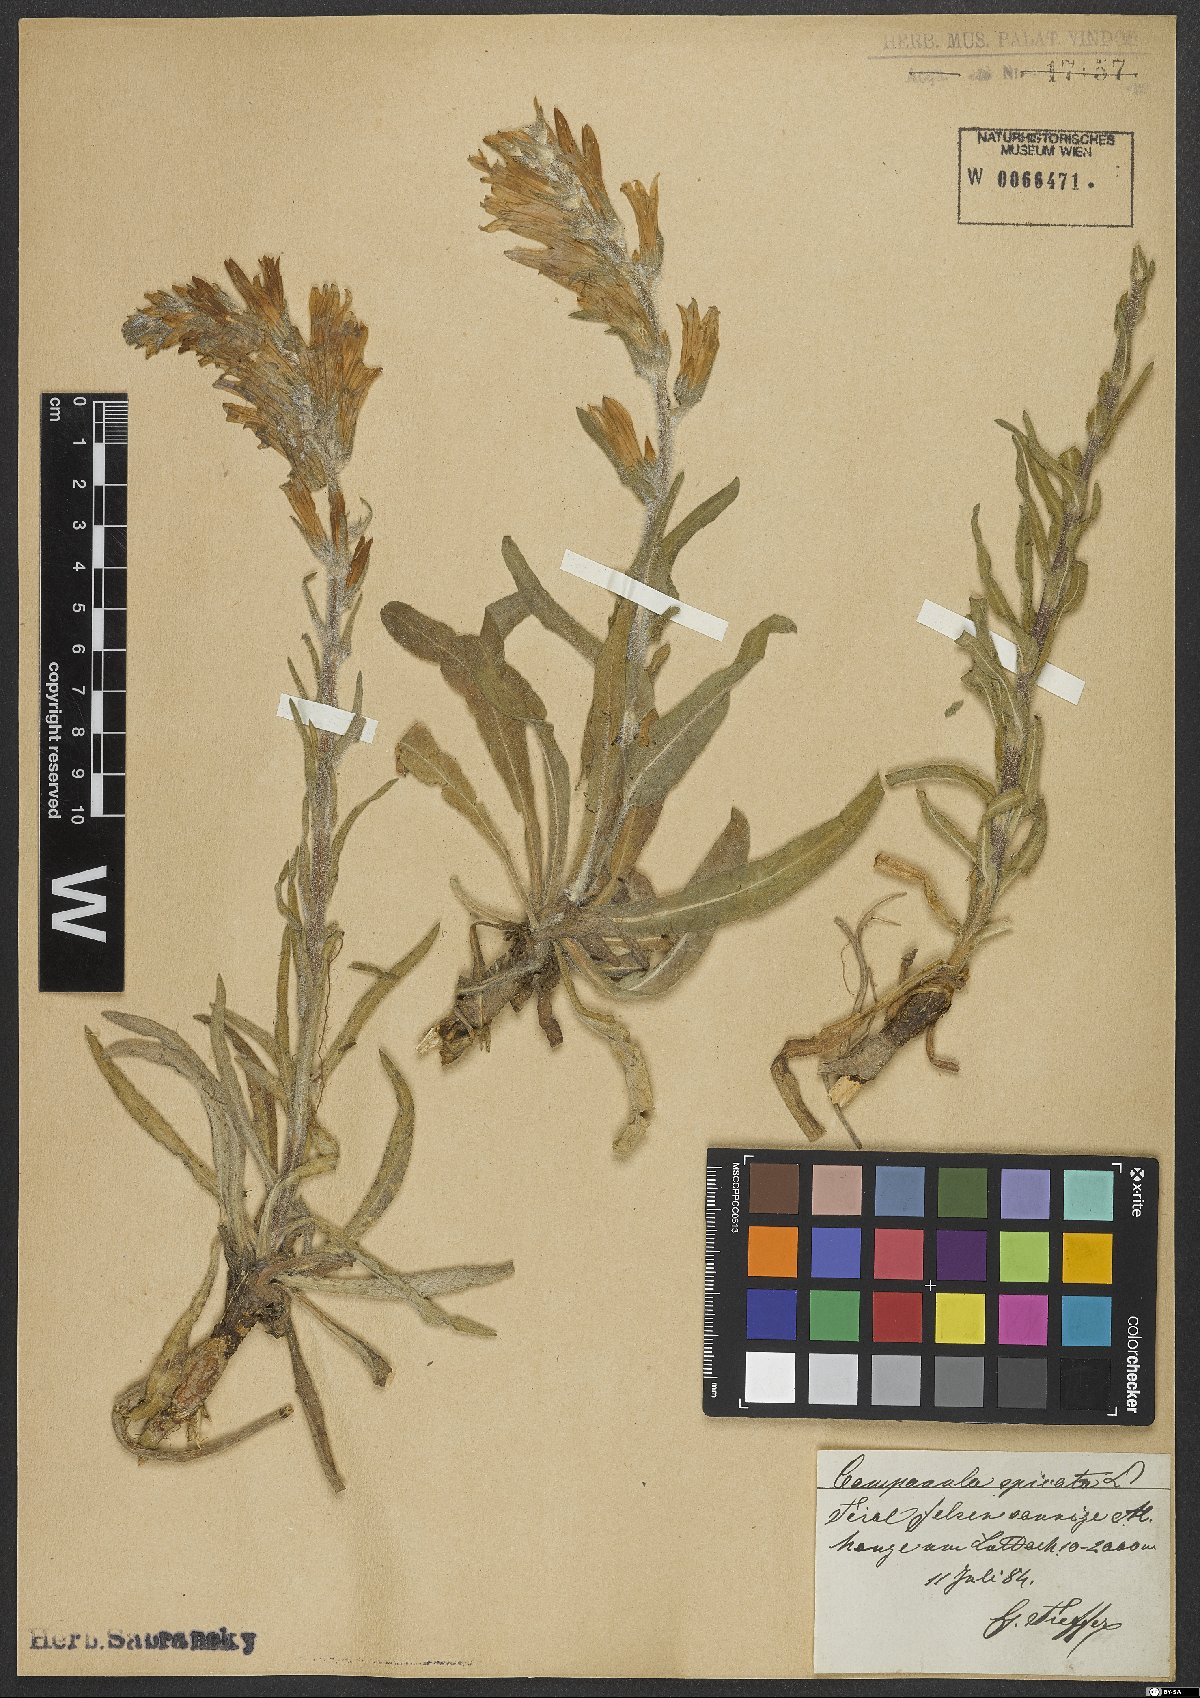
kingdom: Plantae
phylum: Tracheophyta
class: Magnoliopsida
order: Asterales
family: Campanulaceae
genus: Campanula
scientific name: Campanula spicata
